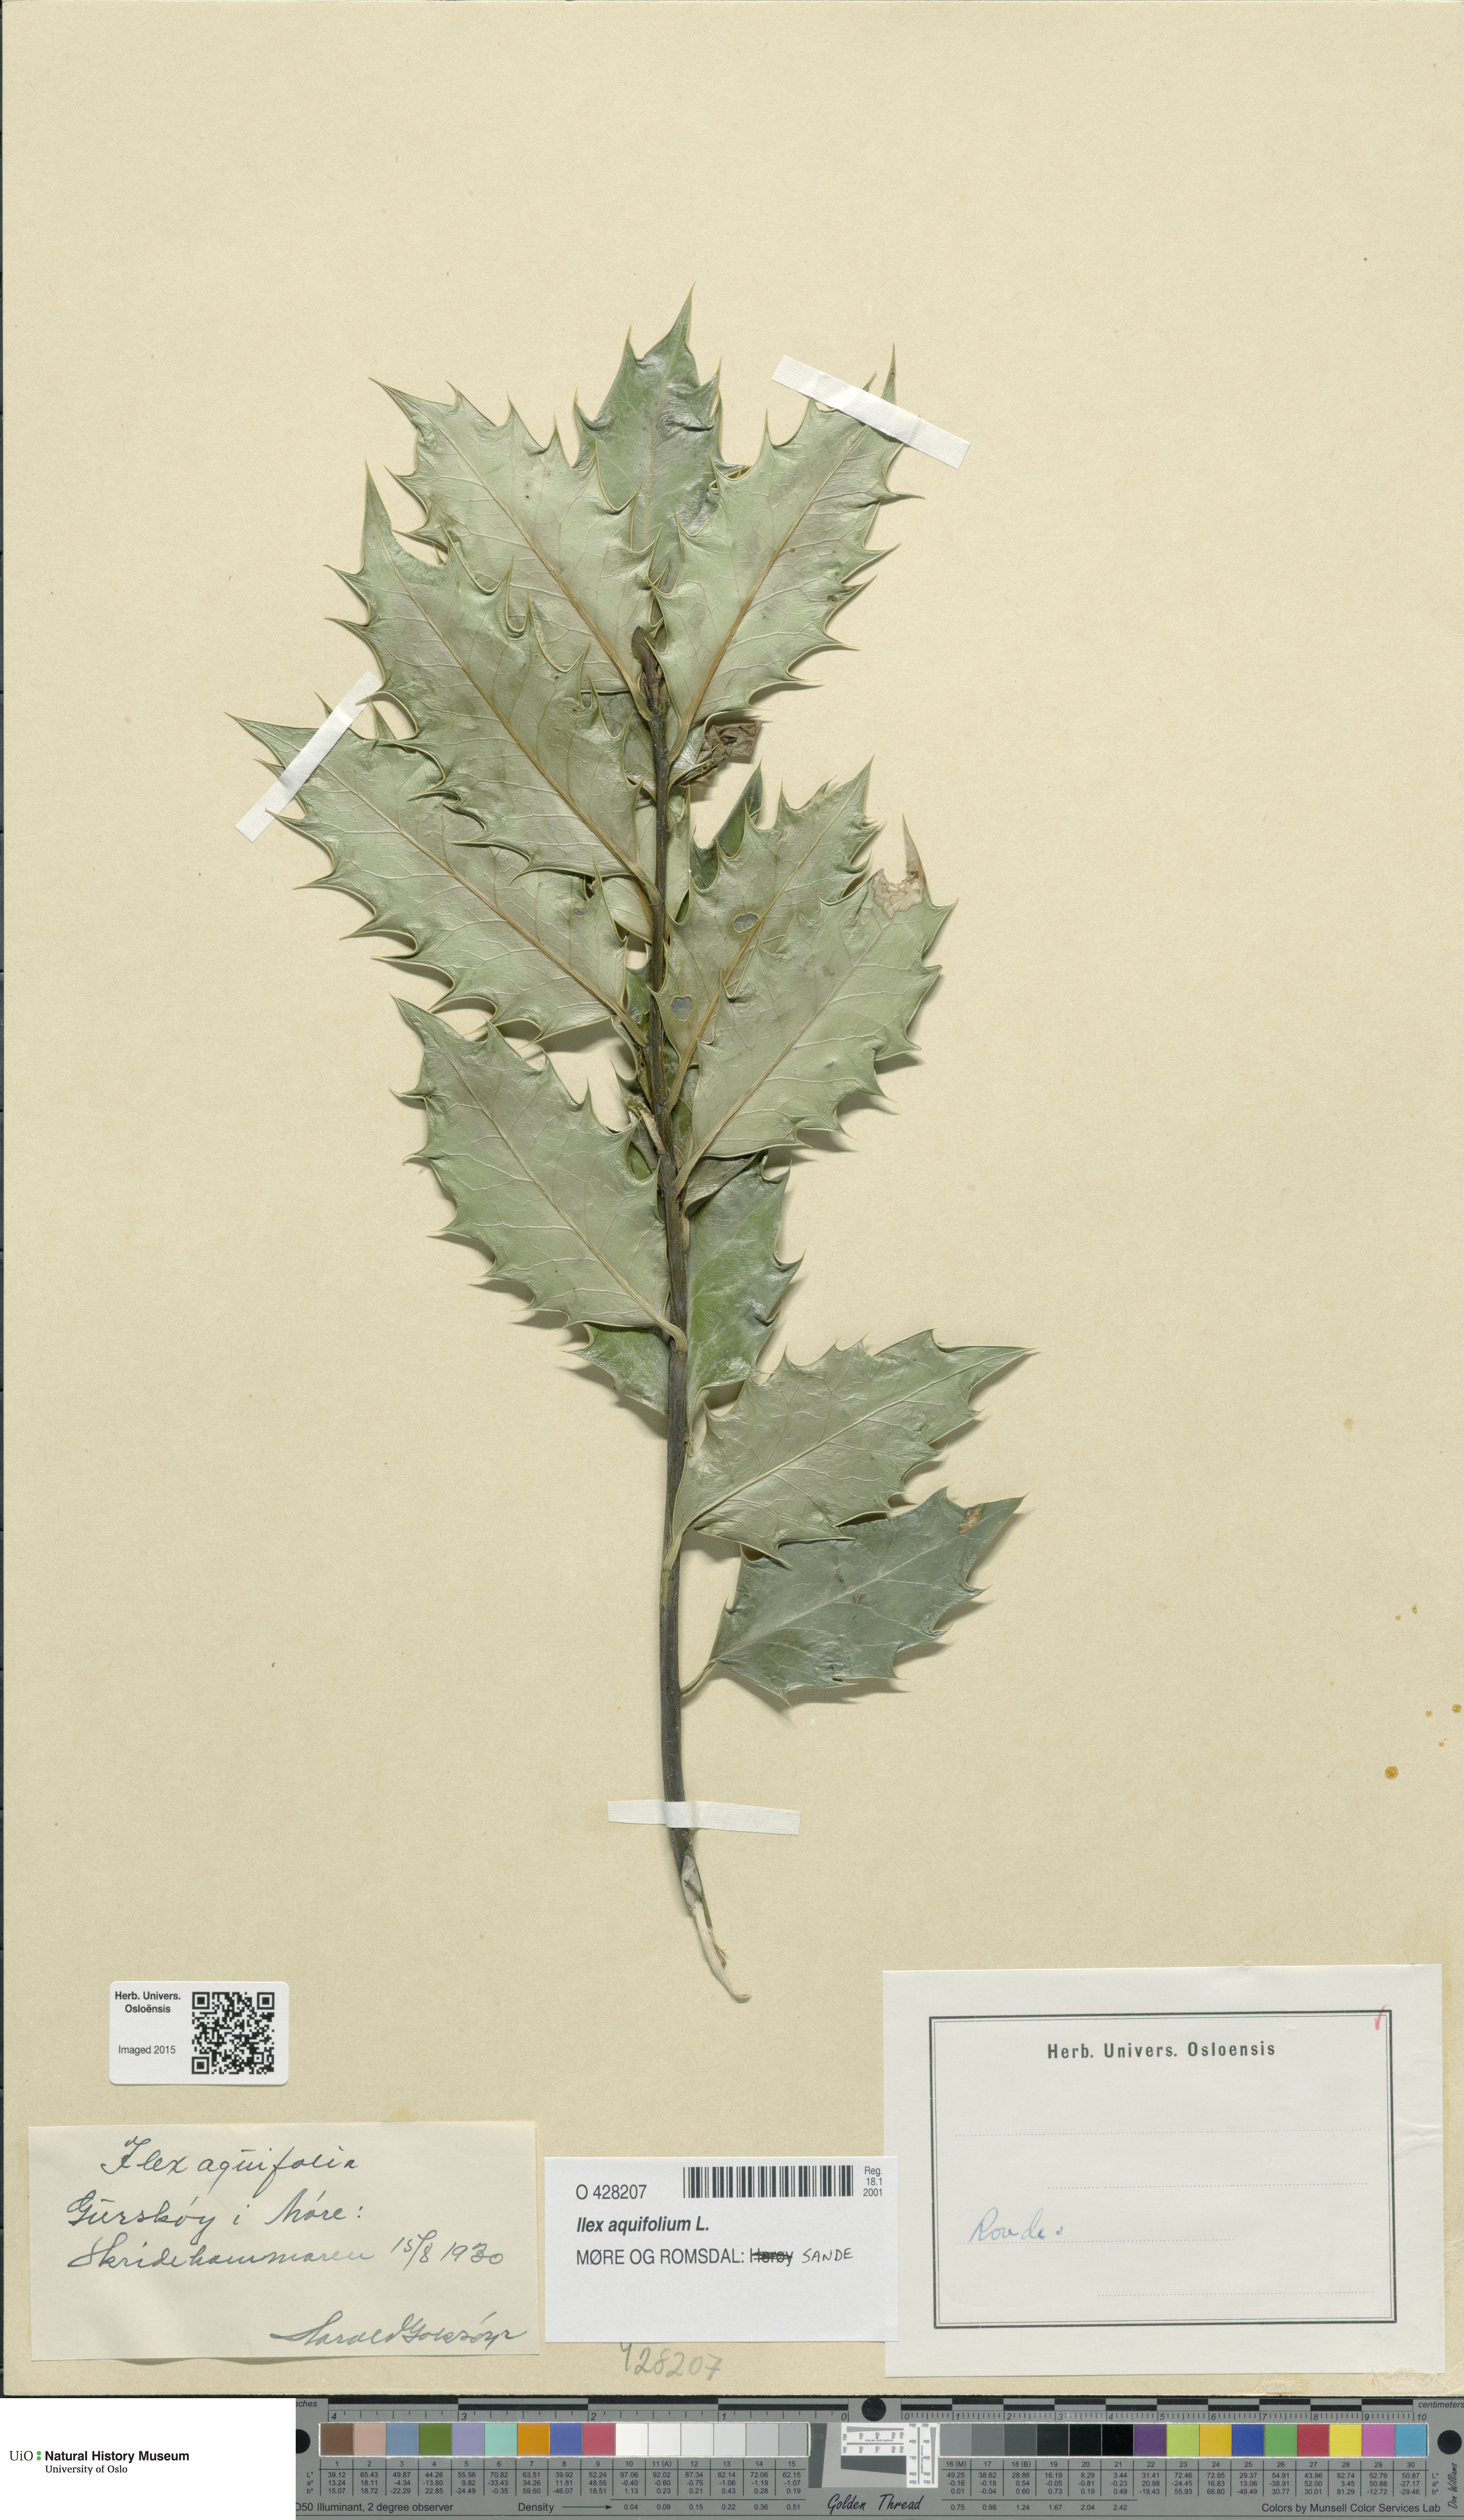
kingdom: Plantae
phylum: Tracheophyta
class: Magnoliopsida
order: Aquifoliales
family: Aquifoliaceae
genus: Ilex
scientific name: Ilex aquifolium
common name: English holly
